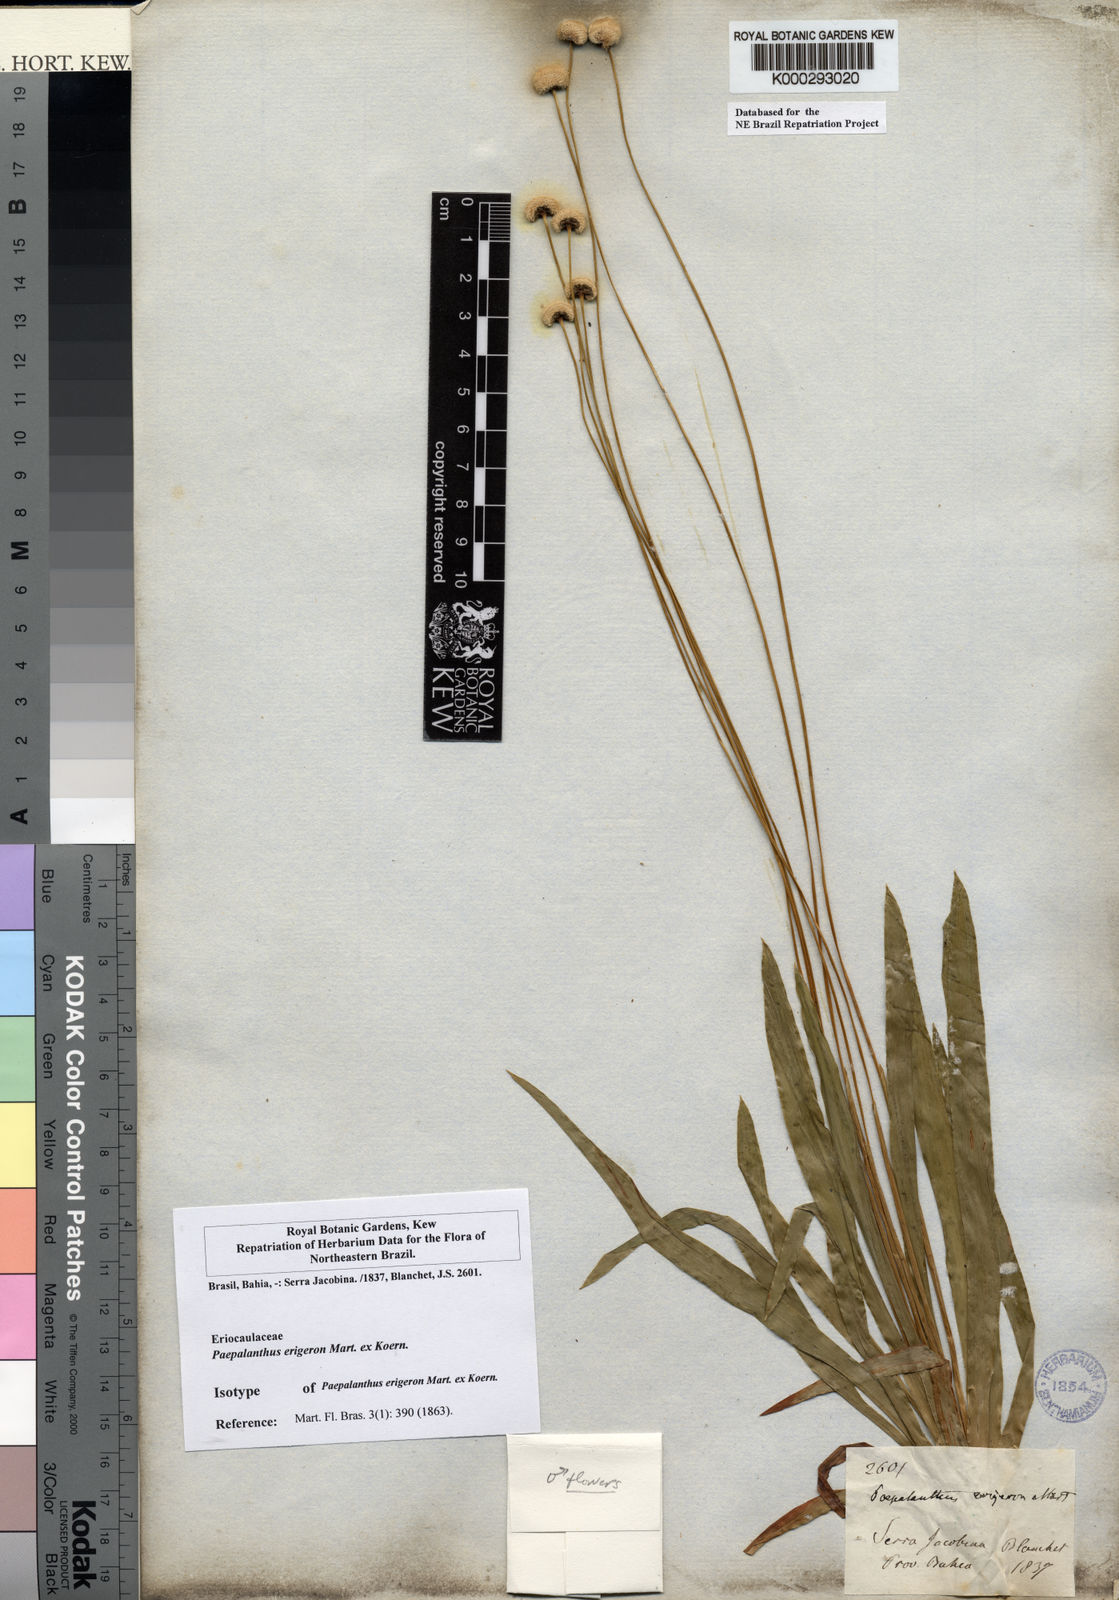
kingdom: Plantae
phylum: Tracheophyta
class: Liliopsida
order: Poales
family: Eriocaulaceae
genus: Paepalanthus
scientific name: Paepalanthus
